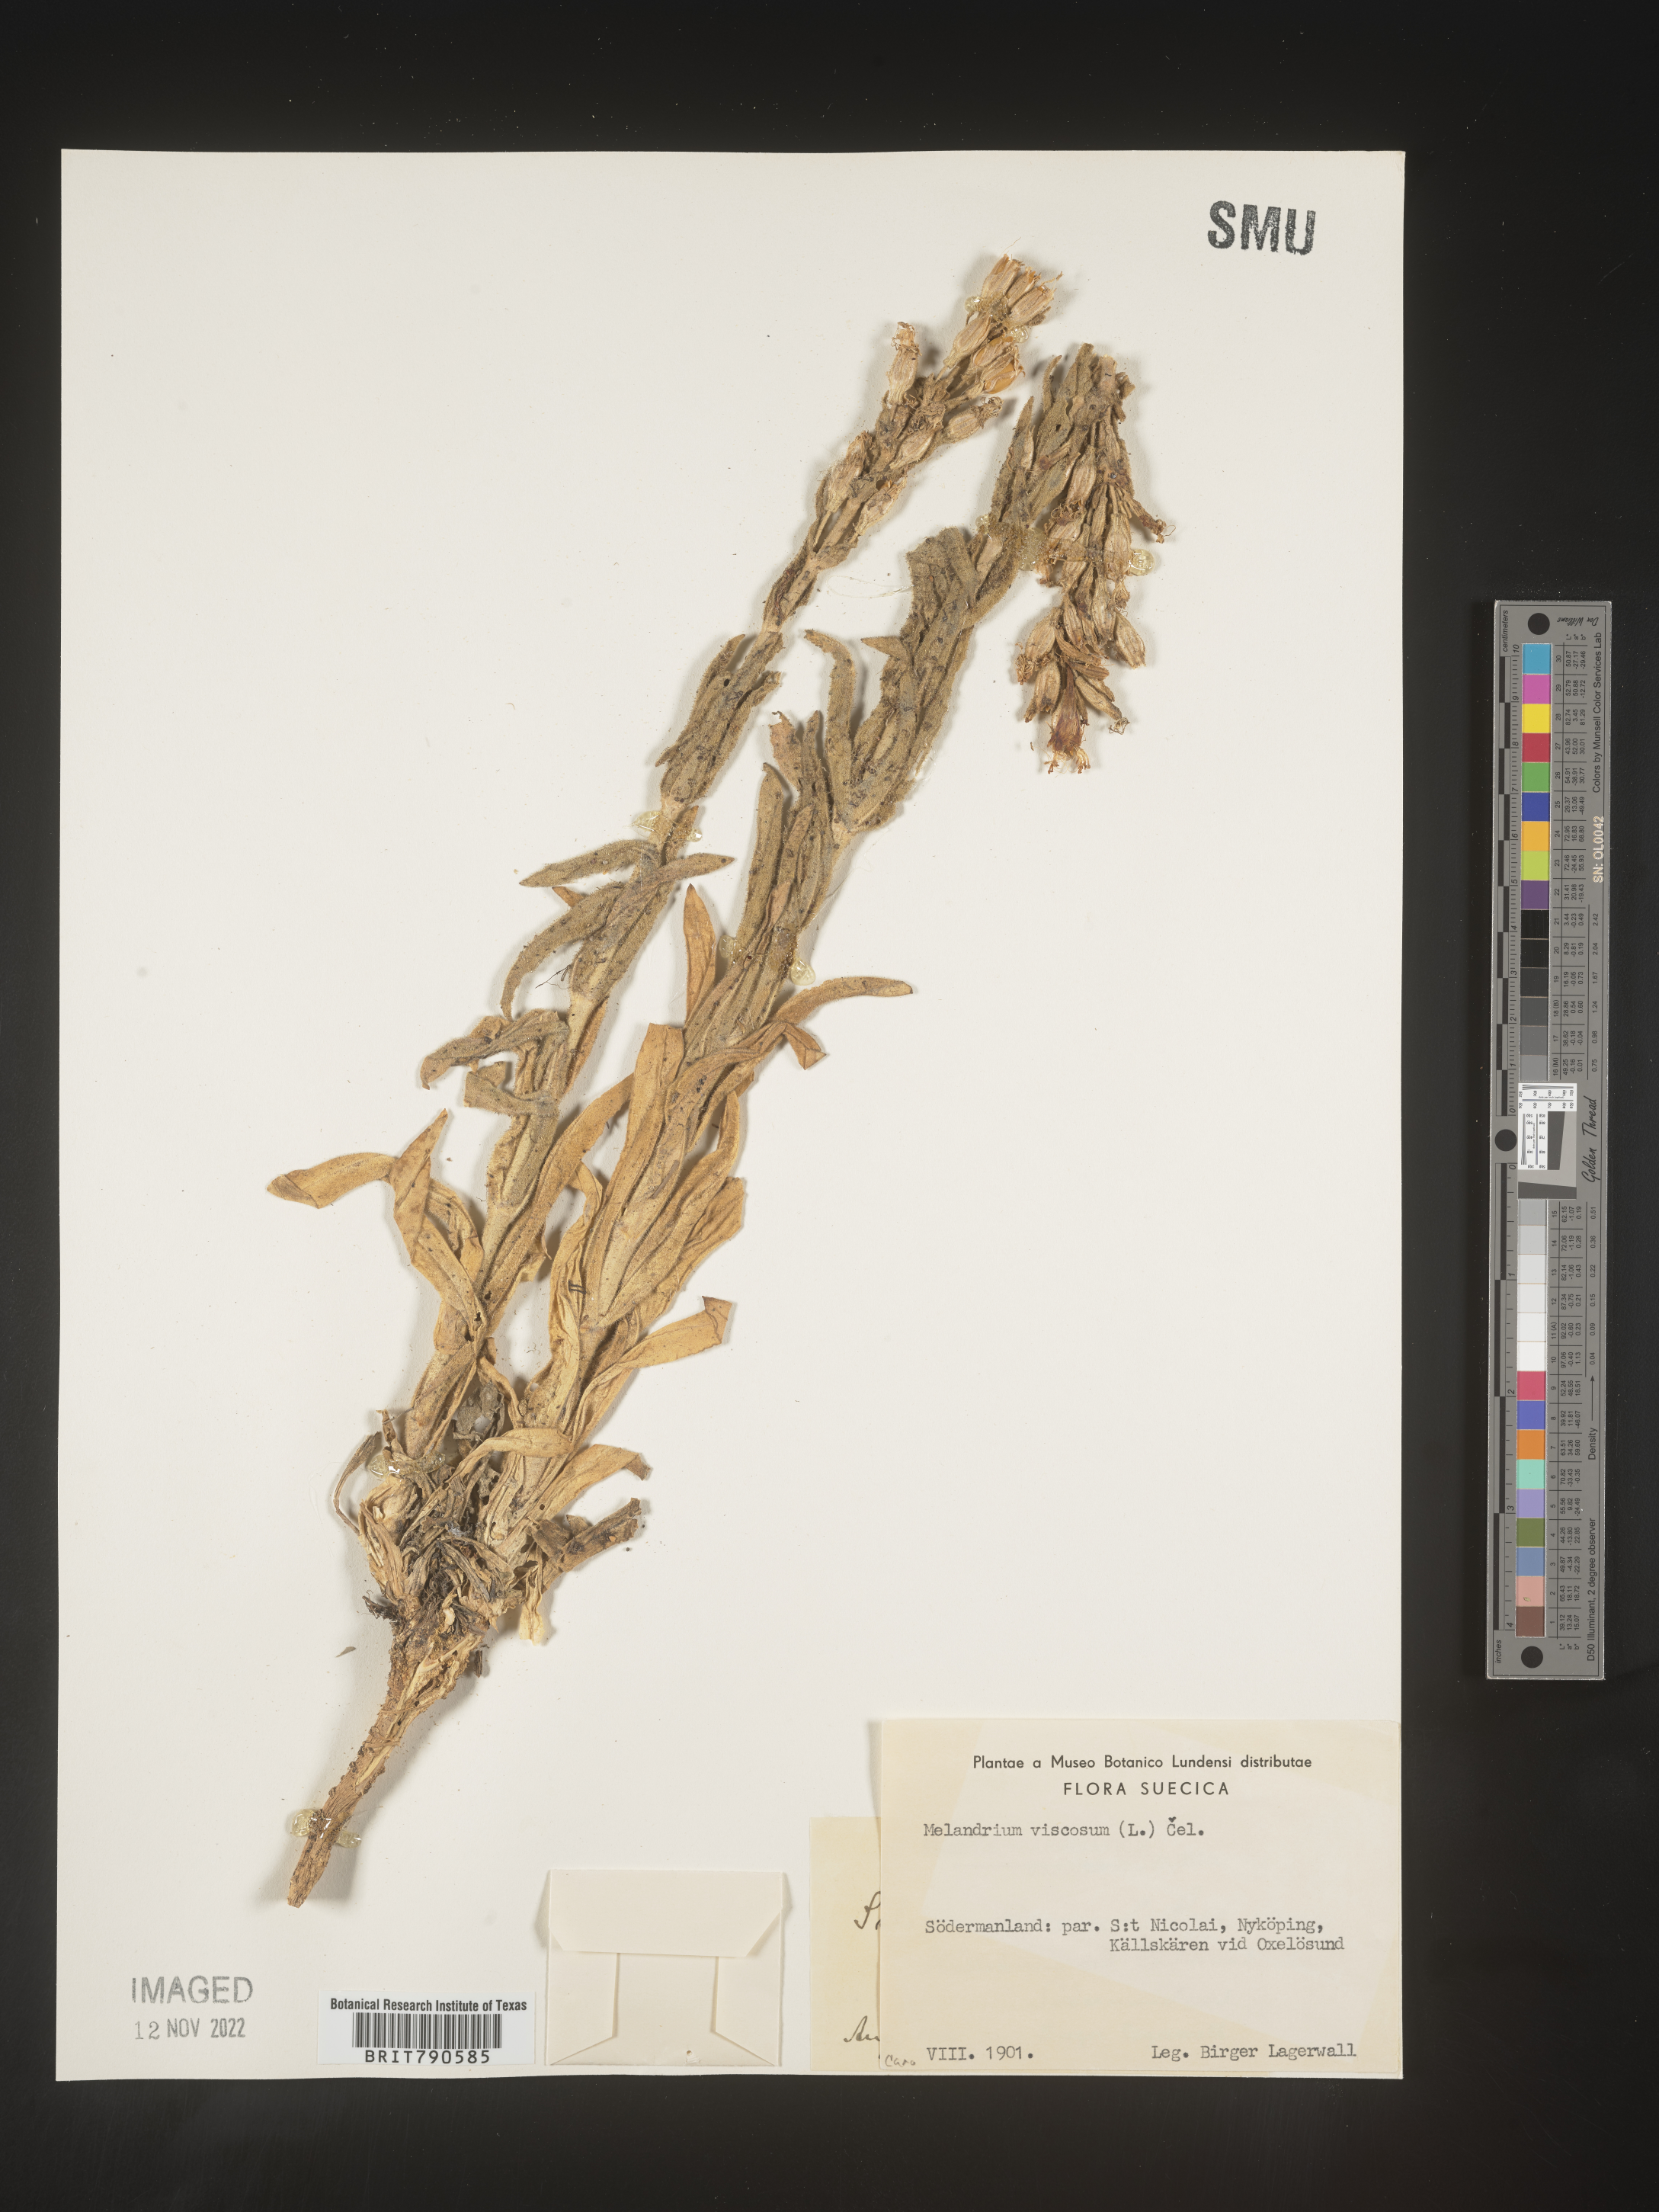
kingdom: Plantae
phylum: Tracheophyta
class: Magnoliopsida
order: Caryophyllales
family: Caryophyllaceae
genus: Silene
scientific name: Silene
